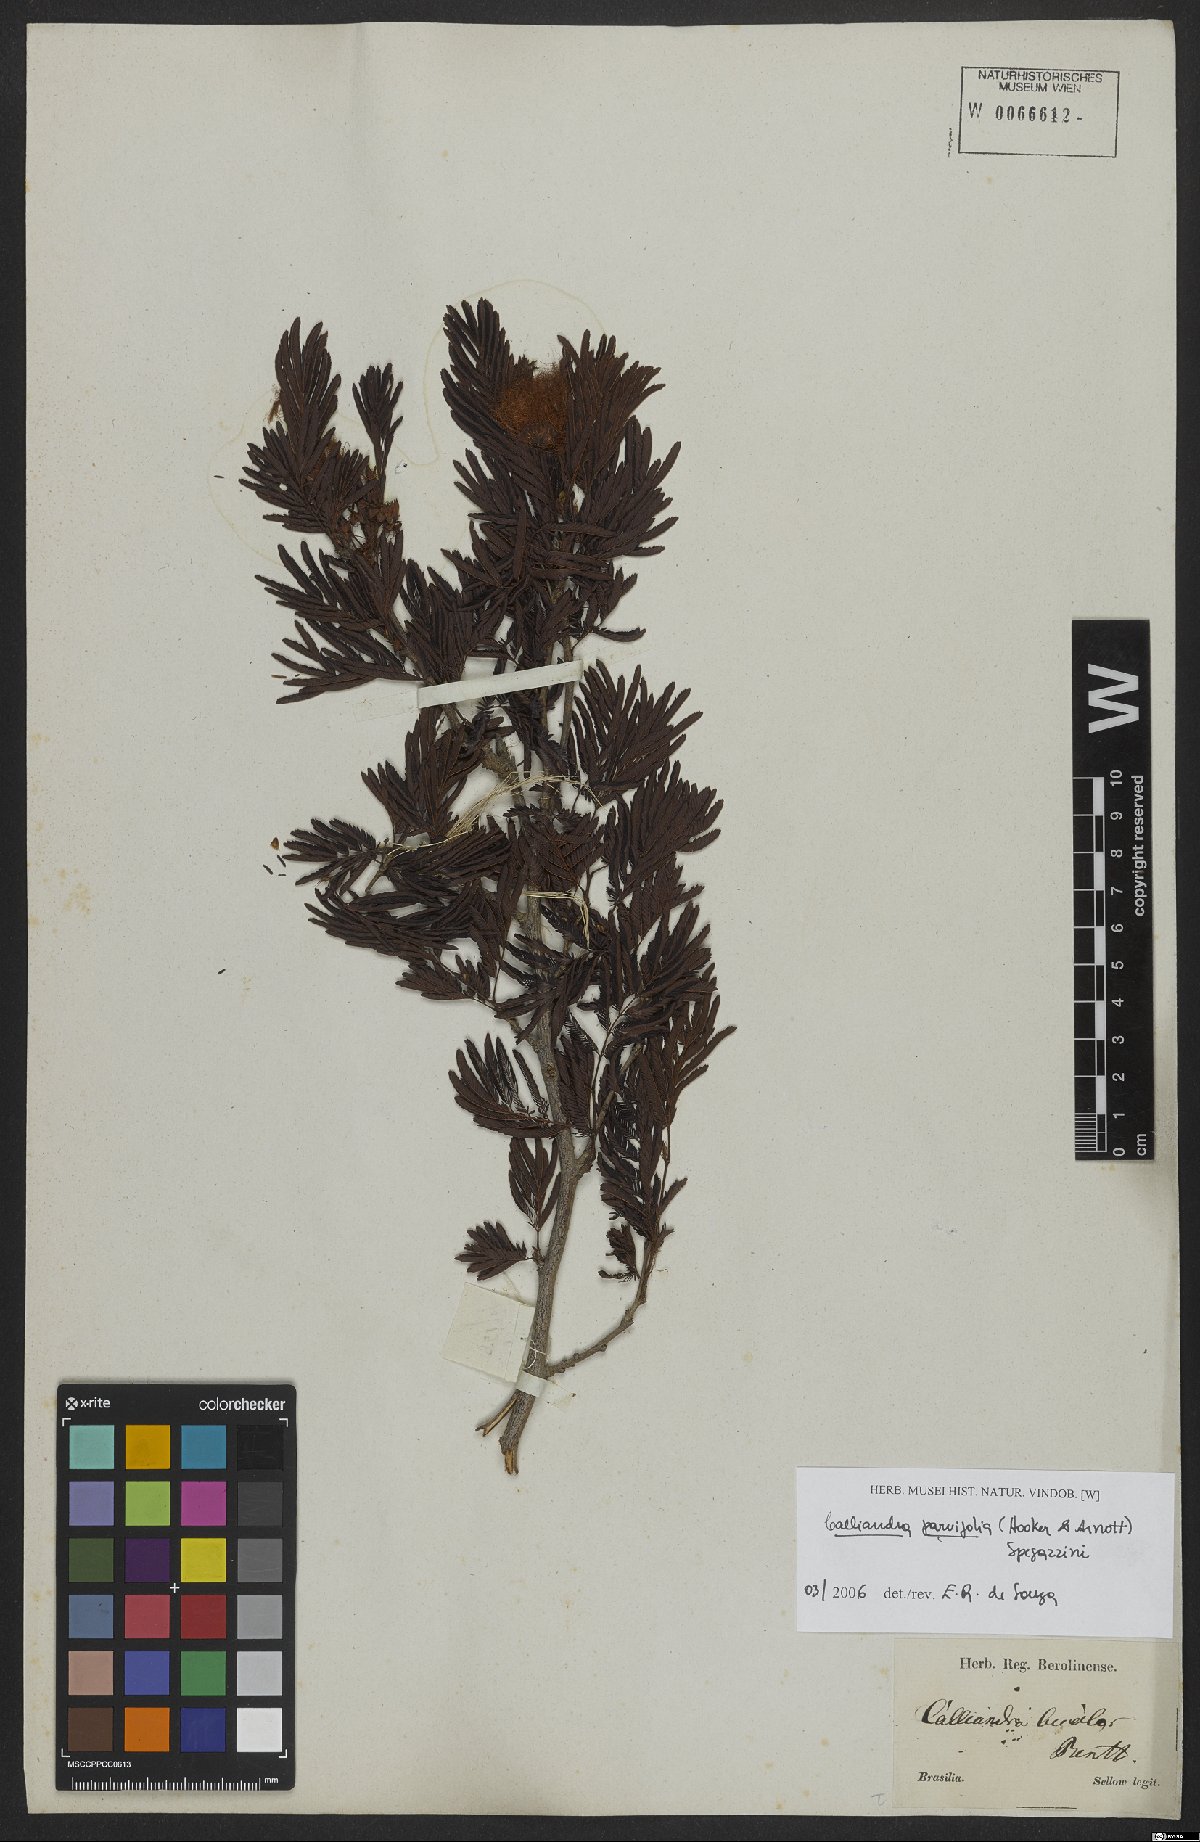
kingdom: Plantae
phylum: Tracheophyta
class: Magnoliopsida
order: Fabales
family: Fabaceae
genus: Calliandra
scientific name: Calliandra parviflora
